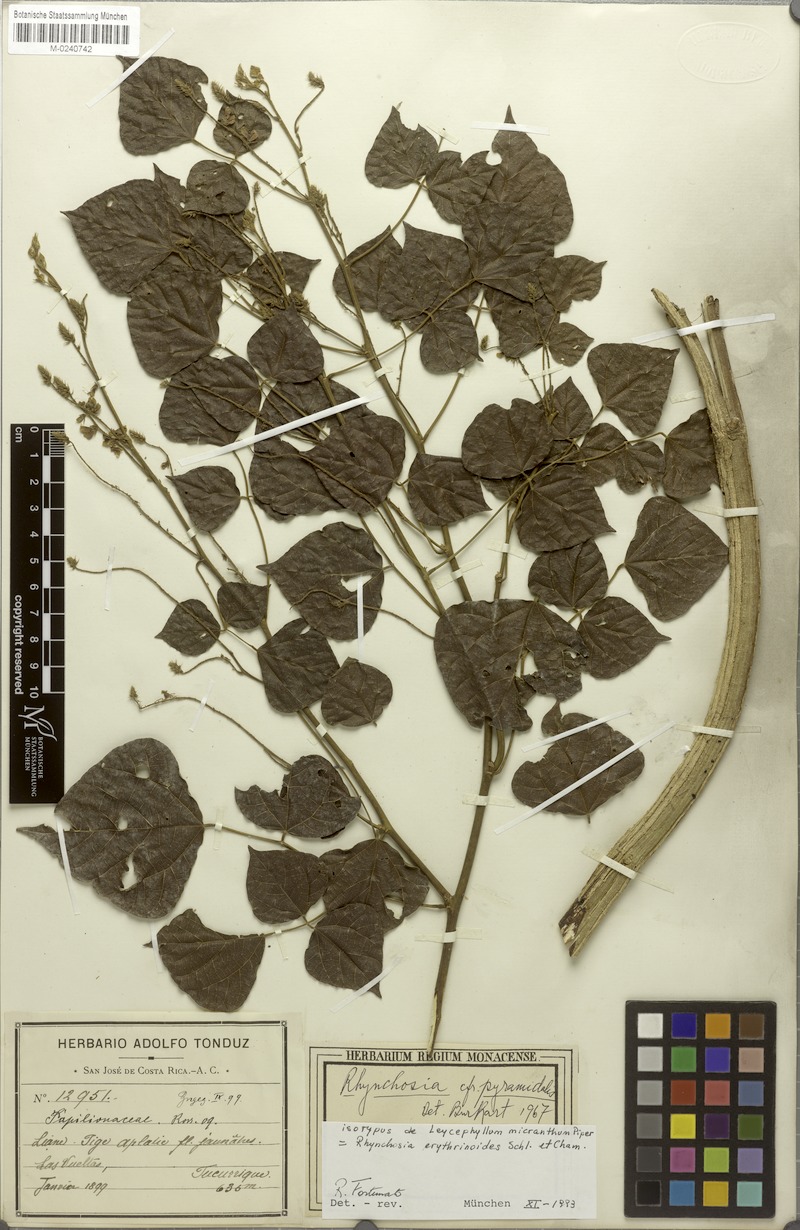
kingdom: Plantae
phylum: Tracheophyta
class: Magnoliopsida
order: Fabales
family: Fabaceae
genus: Rhynchosia
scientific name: Rhynchosia erythrinoides
